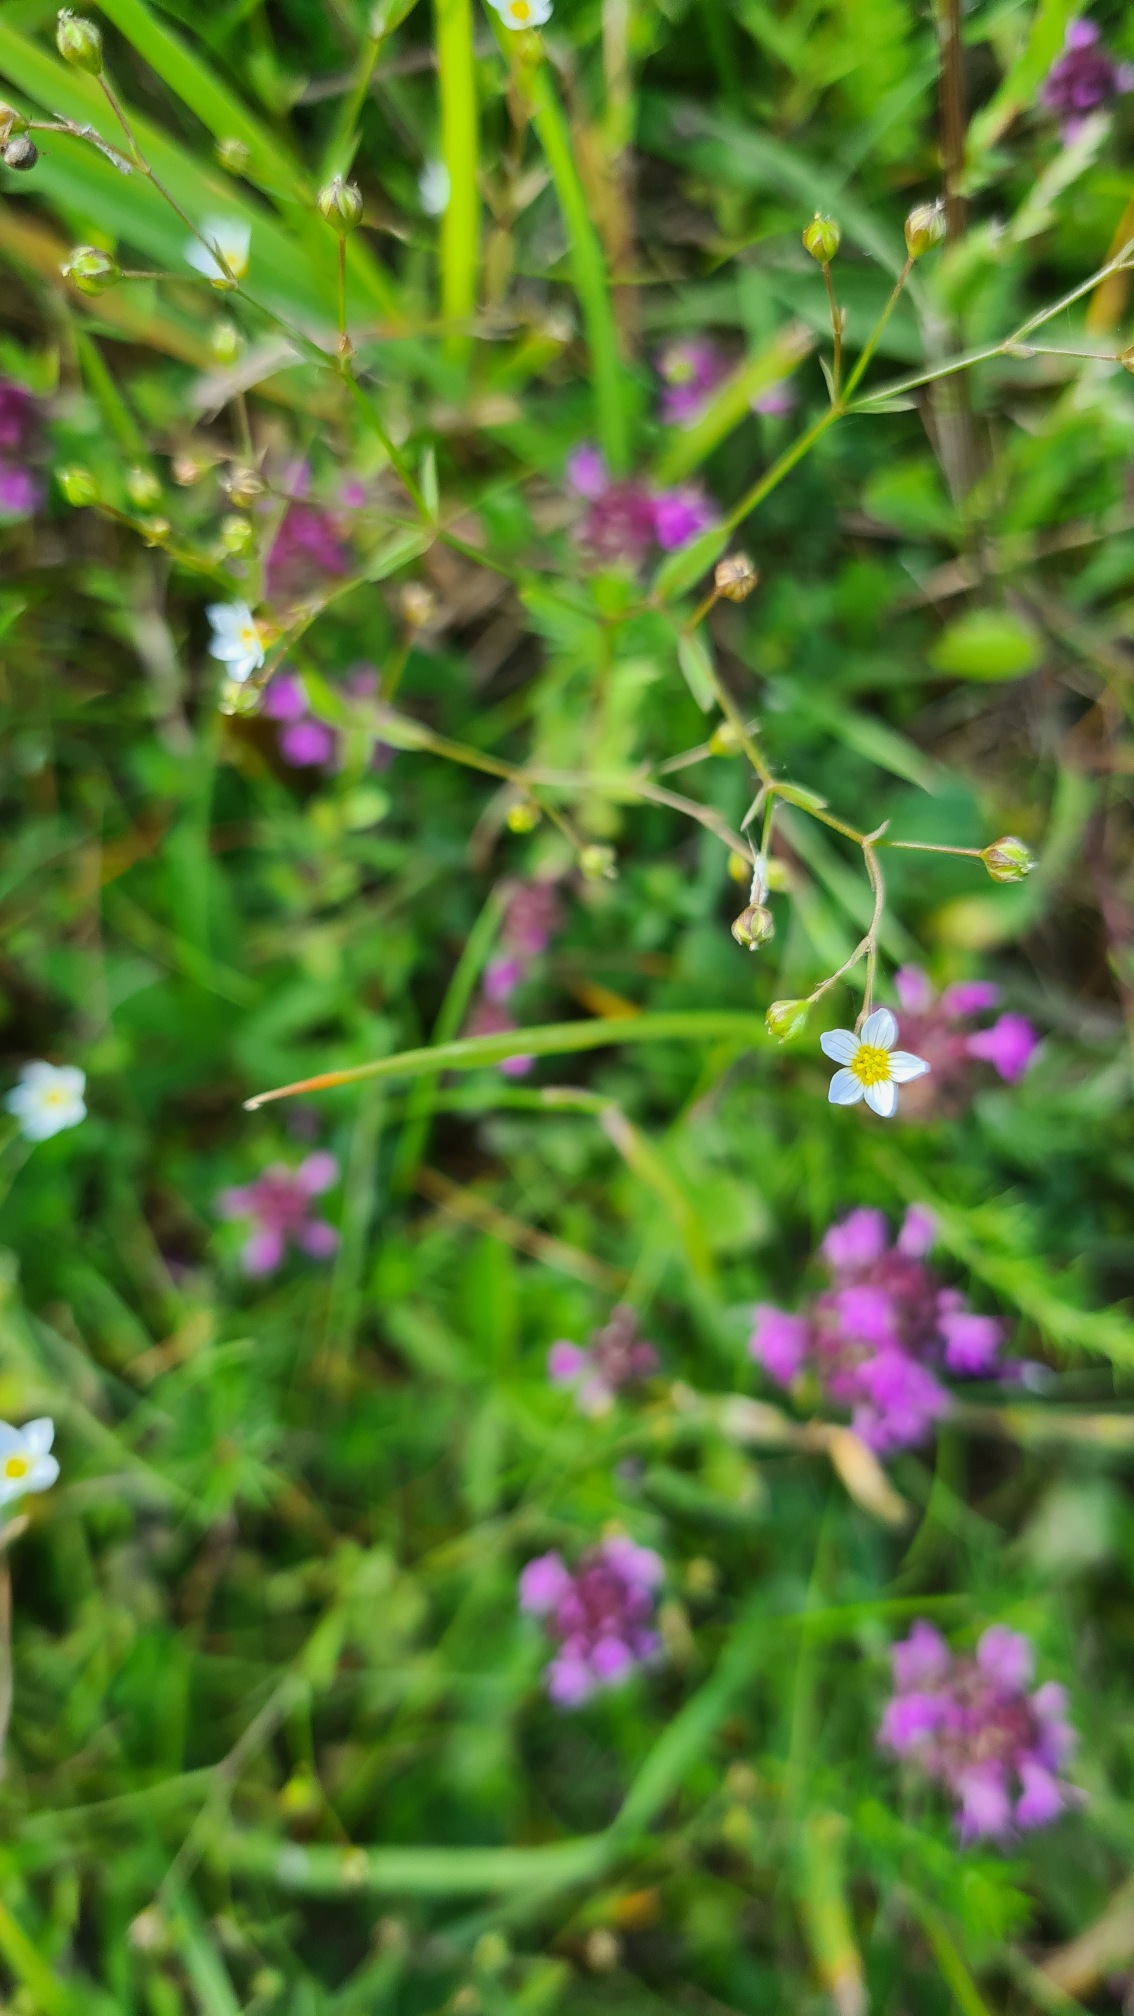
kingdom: Plantae
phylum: Tracheophyta
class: Magnoliopsida
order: Malpighiales
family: Linaceae
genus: Linum
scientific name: Linum catharticum
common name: Vild hør
